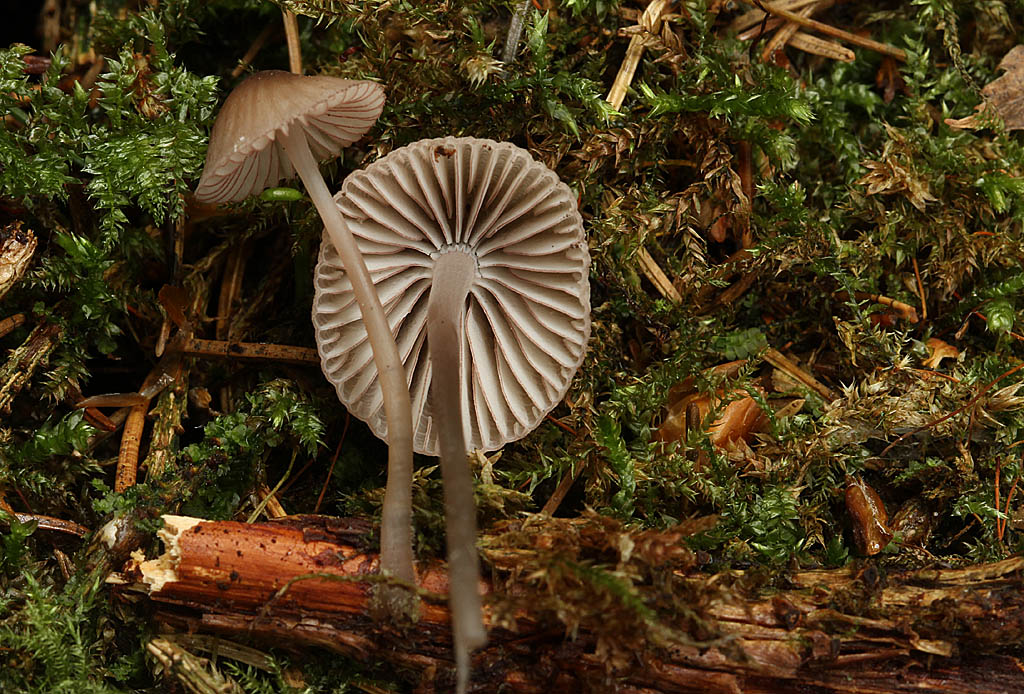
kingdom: Fungi
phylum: Basidiomycota
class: Agaricomycetes
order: Agaricales
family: Mycenaceae
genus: Mycena
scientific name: Mycena rubromarginata
